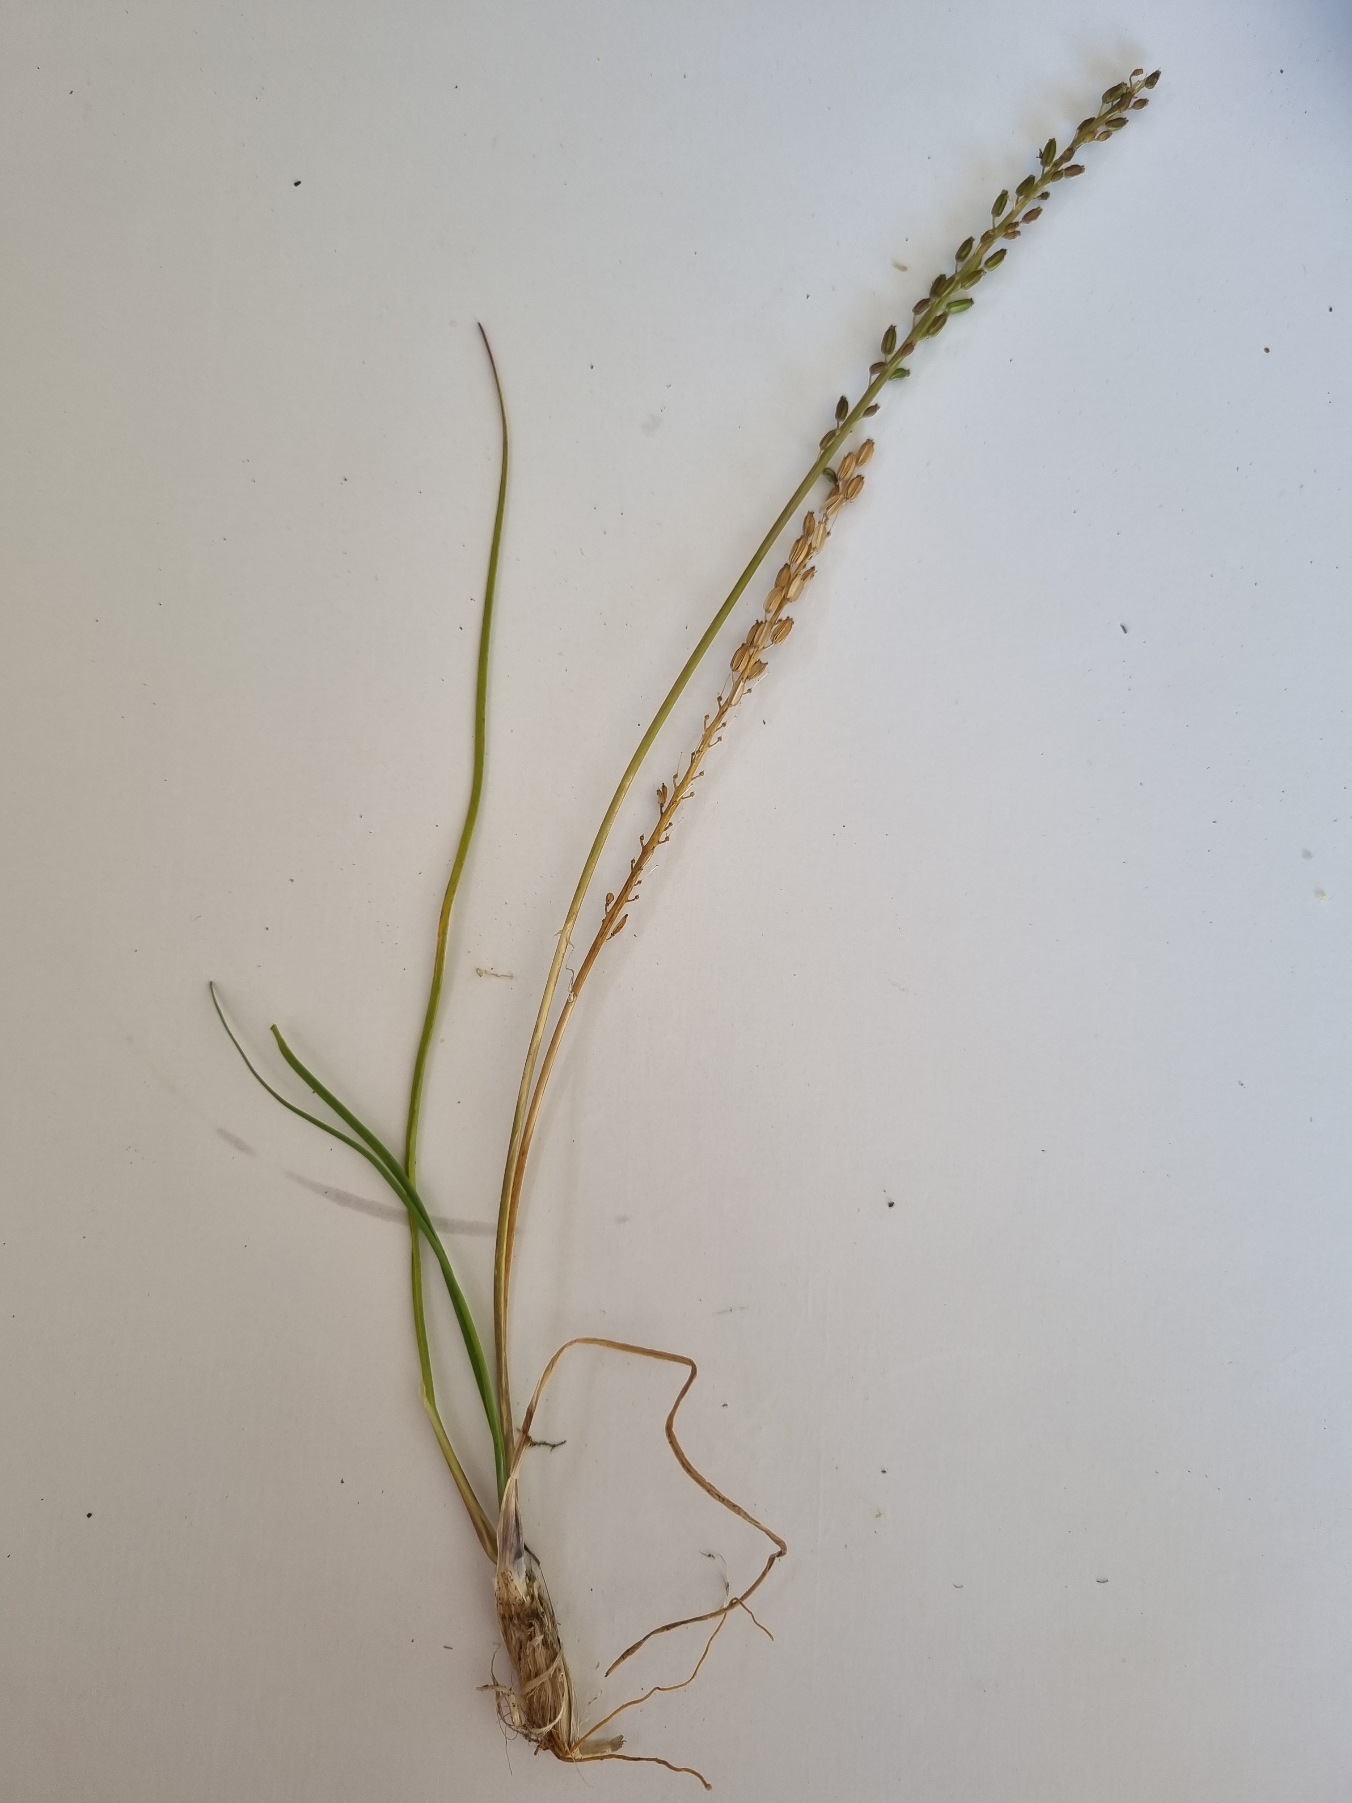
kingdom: Plantae
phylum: Tracheophyta
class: Liliopsida
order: Alismatales
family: Juncaginaceae
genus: Triglochin
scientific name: Triglochin maritima
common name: Strand-trehage
